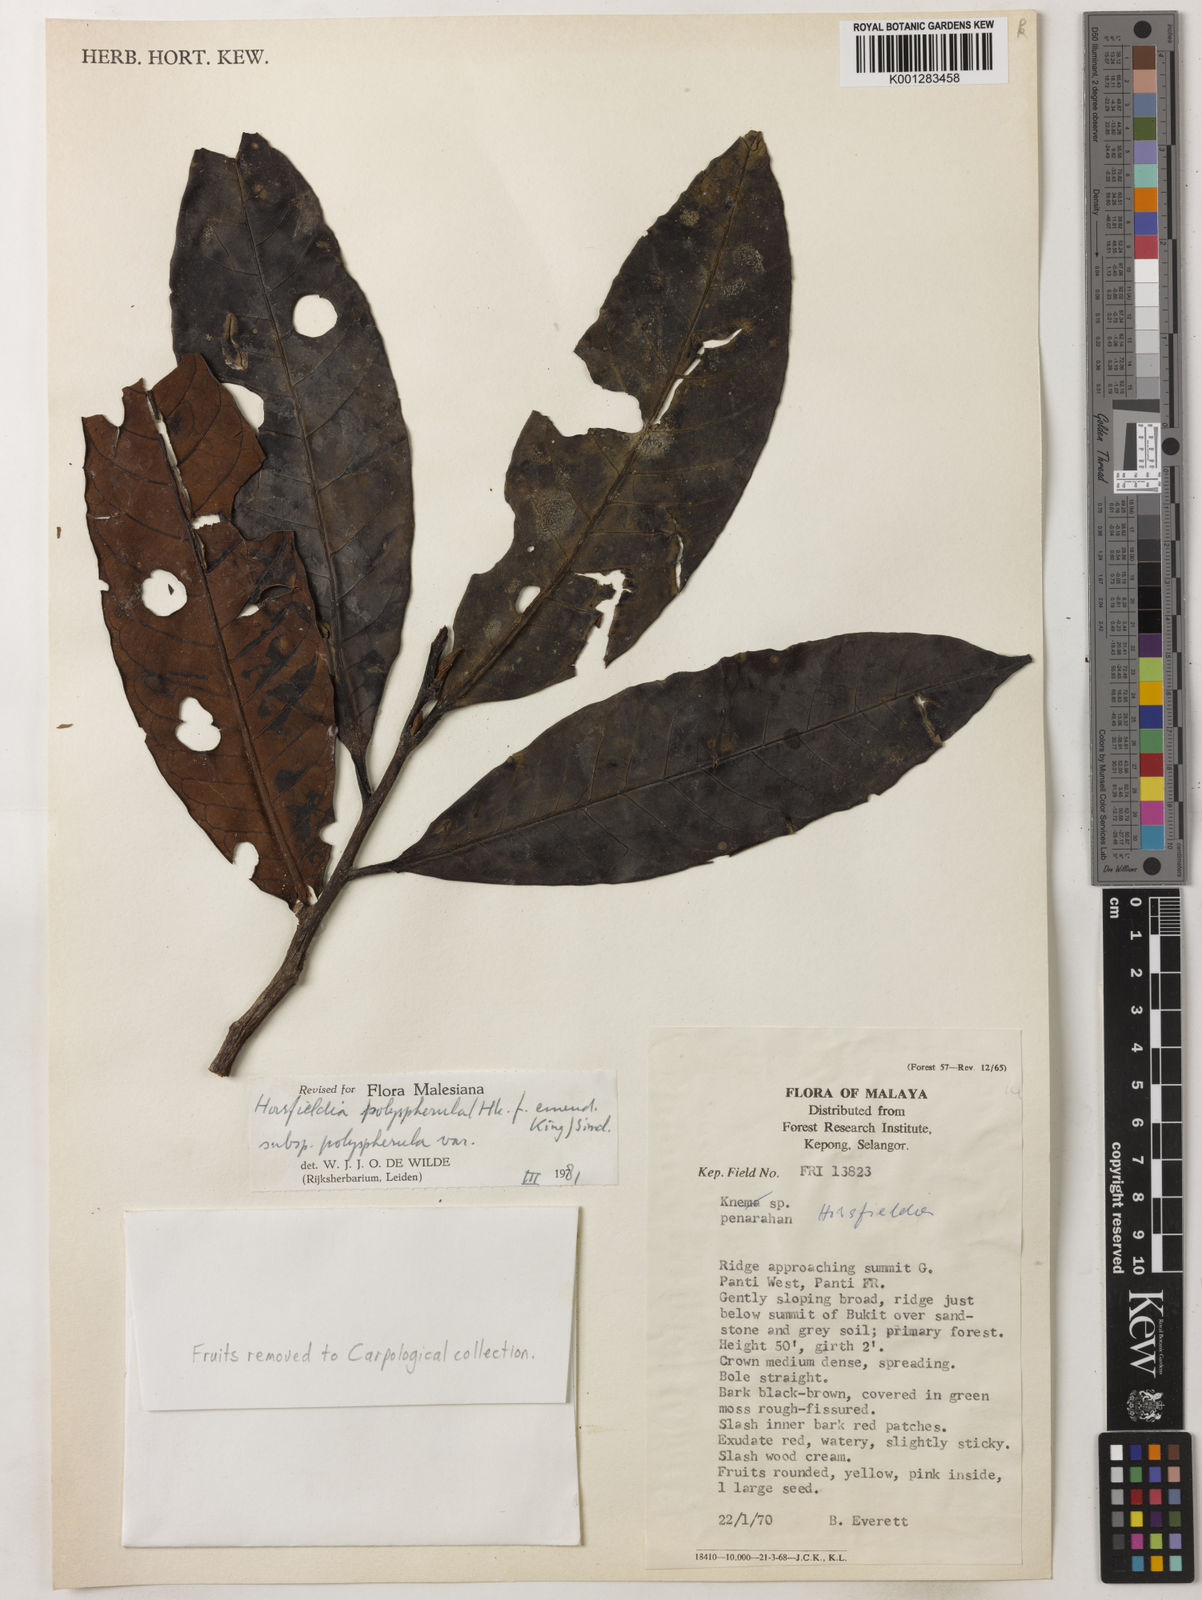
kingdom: Plantae
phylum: Tracheophyta
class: Magnoliopsida
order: Magnoliales
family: Myristicaceae
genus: Horsfieldia
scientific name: Horsfieldia polyspherula
